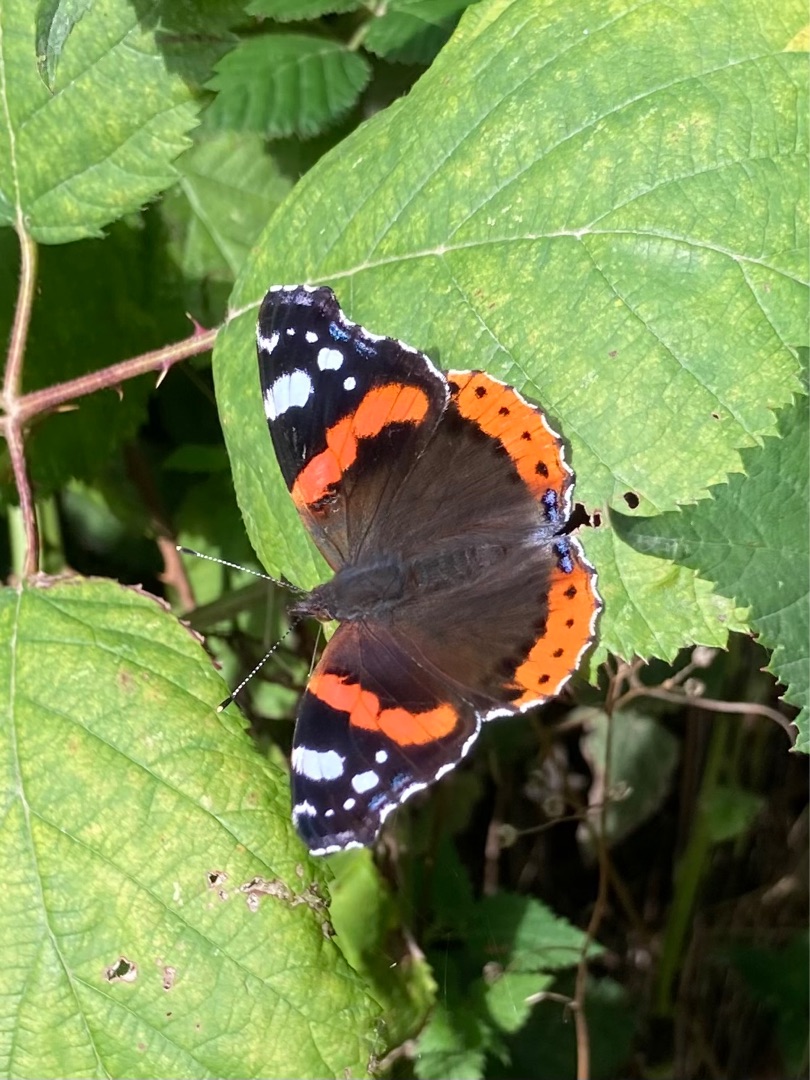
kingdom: Animalia
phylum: Arthropoda
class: Insecta
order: Lepidoptera
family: Nymphalidae
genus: Vanessa
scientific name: Vanessa atalanta
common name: Admiral
